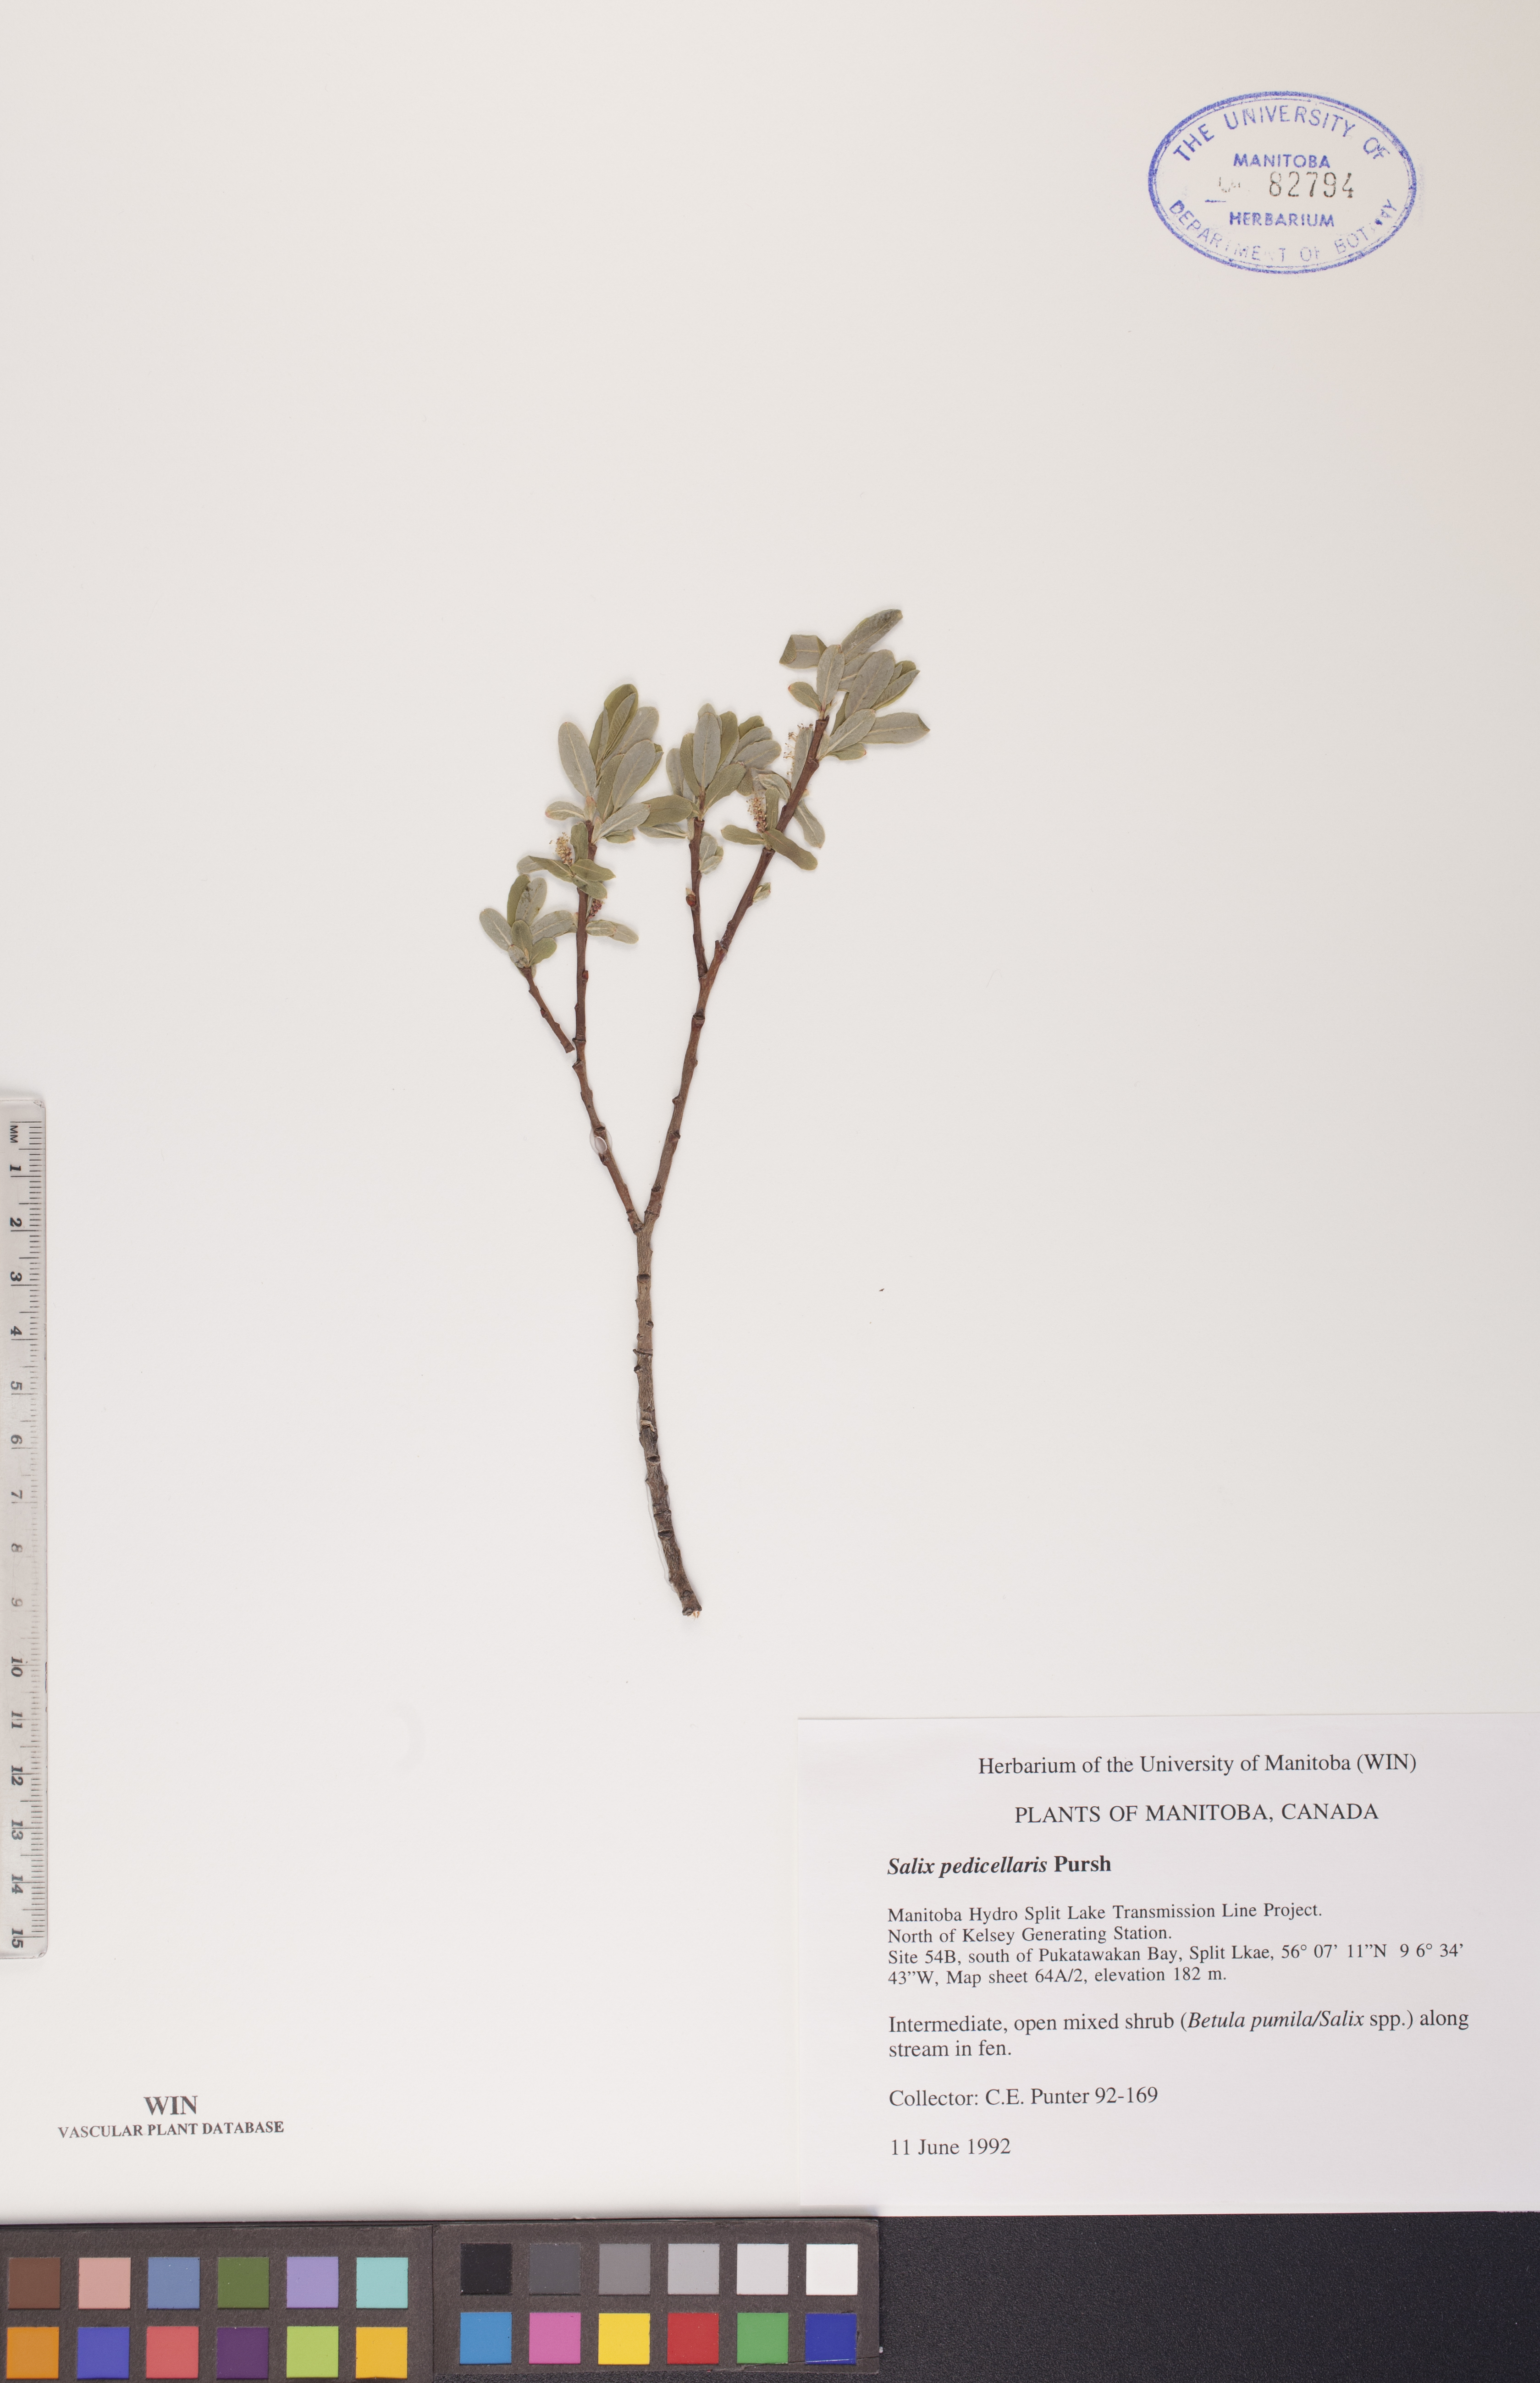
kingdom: Plantae
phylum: Tracheophyta
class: Magnoliopsida
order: Malpighiales
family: Salicaceae
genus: Salix
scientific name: Salix pedicellaris
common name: Bog willow
